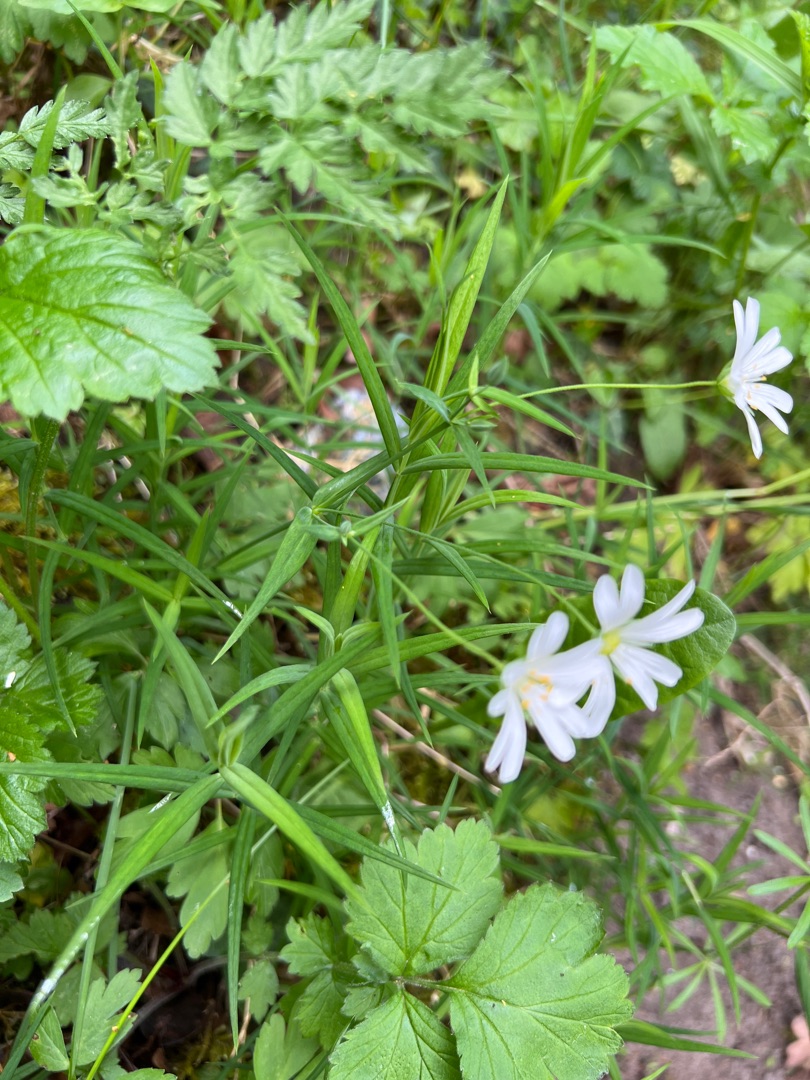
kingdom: Plantae
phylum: Tracheophyta
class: Magnoliopsida
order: Caryophyllales
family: Caryophyllaceae
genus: Rabelera
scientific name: Rabelera holostea
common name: Stor fladstjerne
